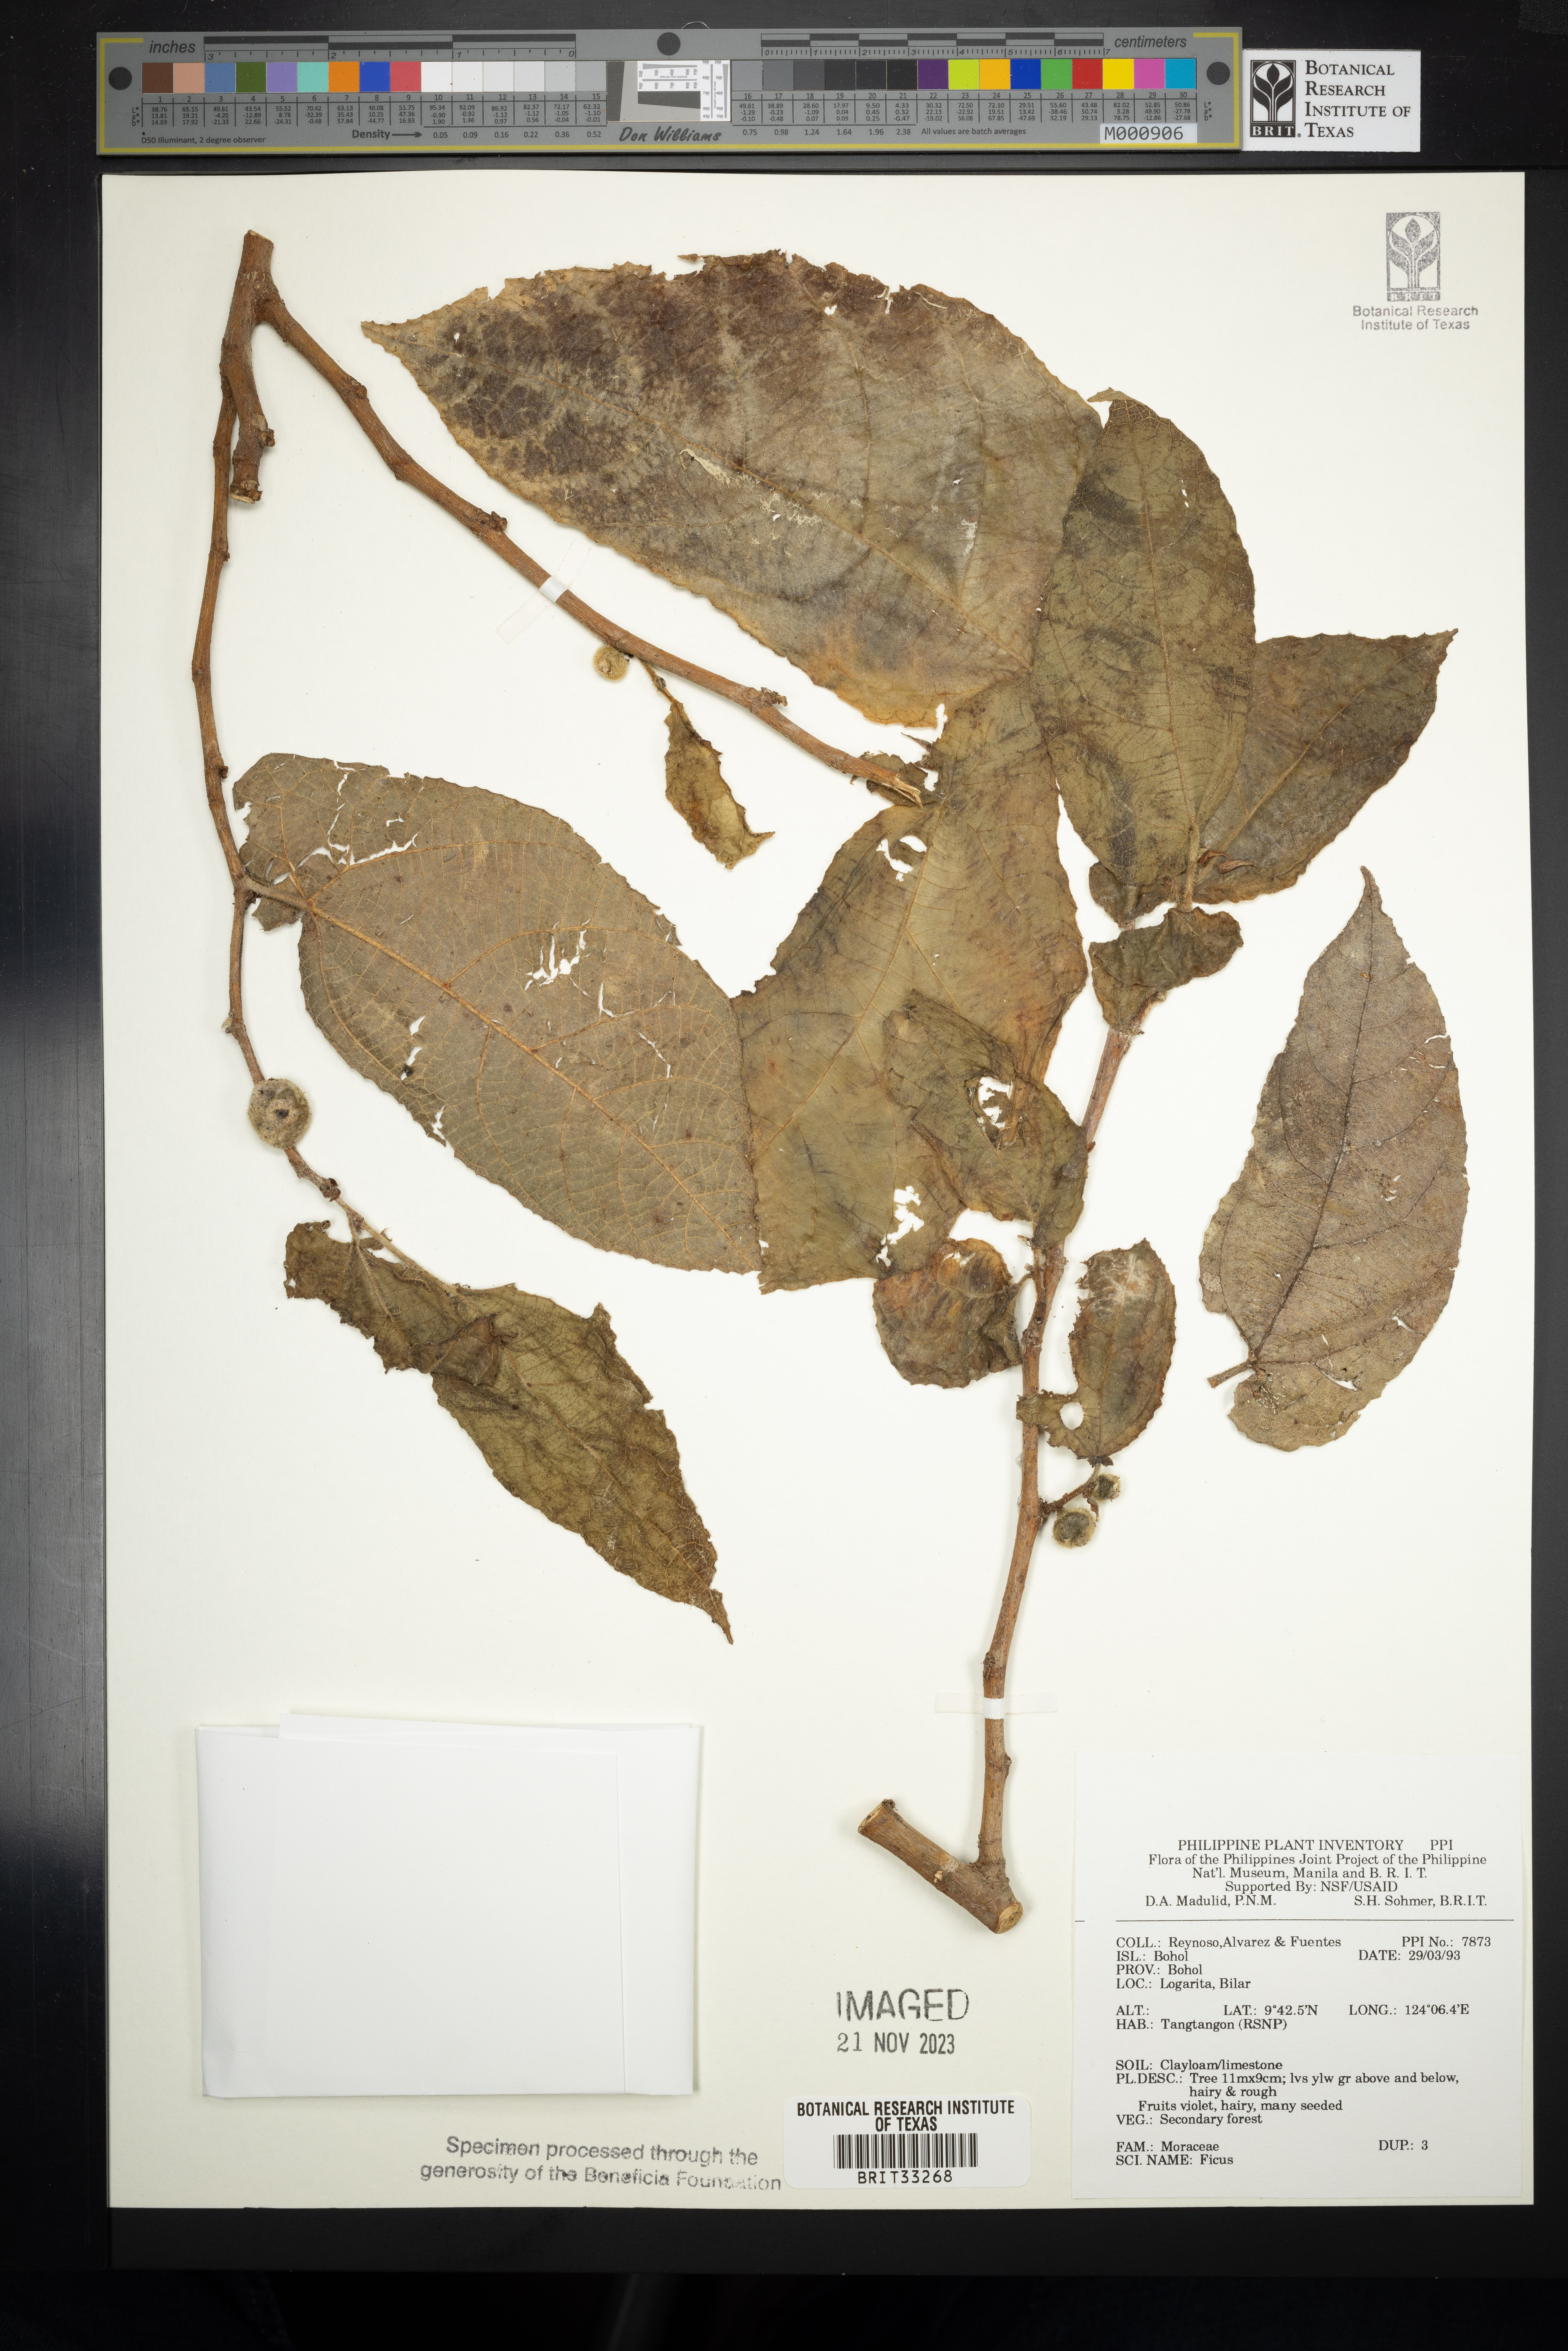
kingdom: Plantae
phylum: Tracheophyta
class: Magnoliopsida
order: Rosales
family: Moraceae
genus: Ficus
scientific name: Ficus
